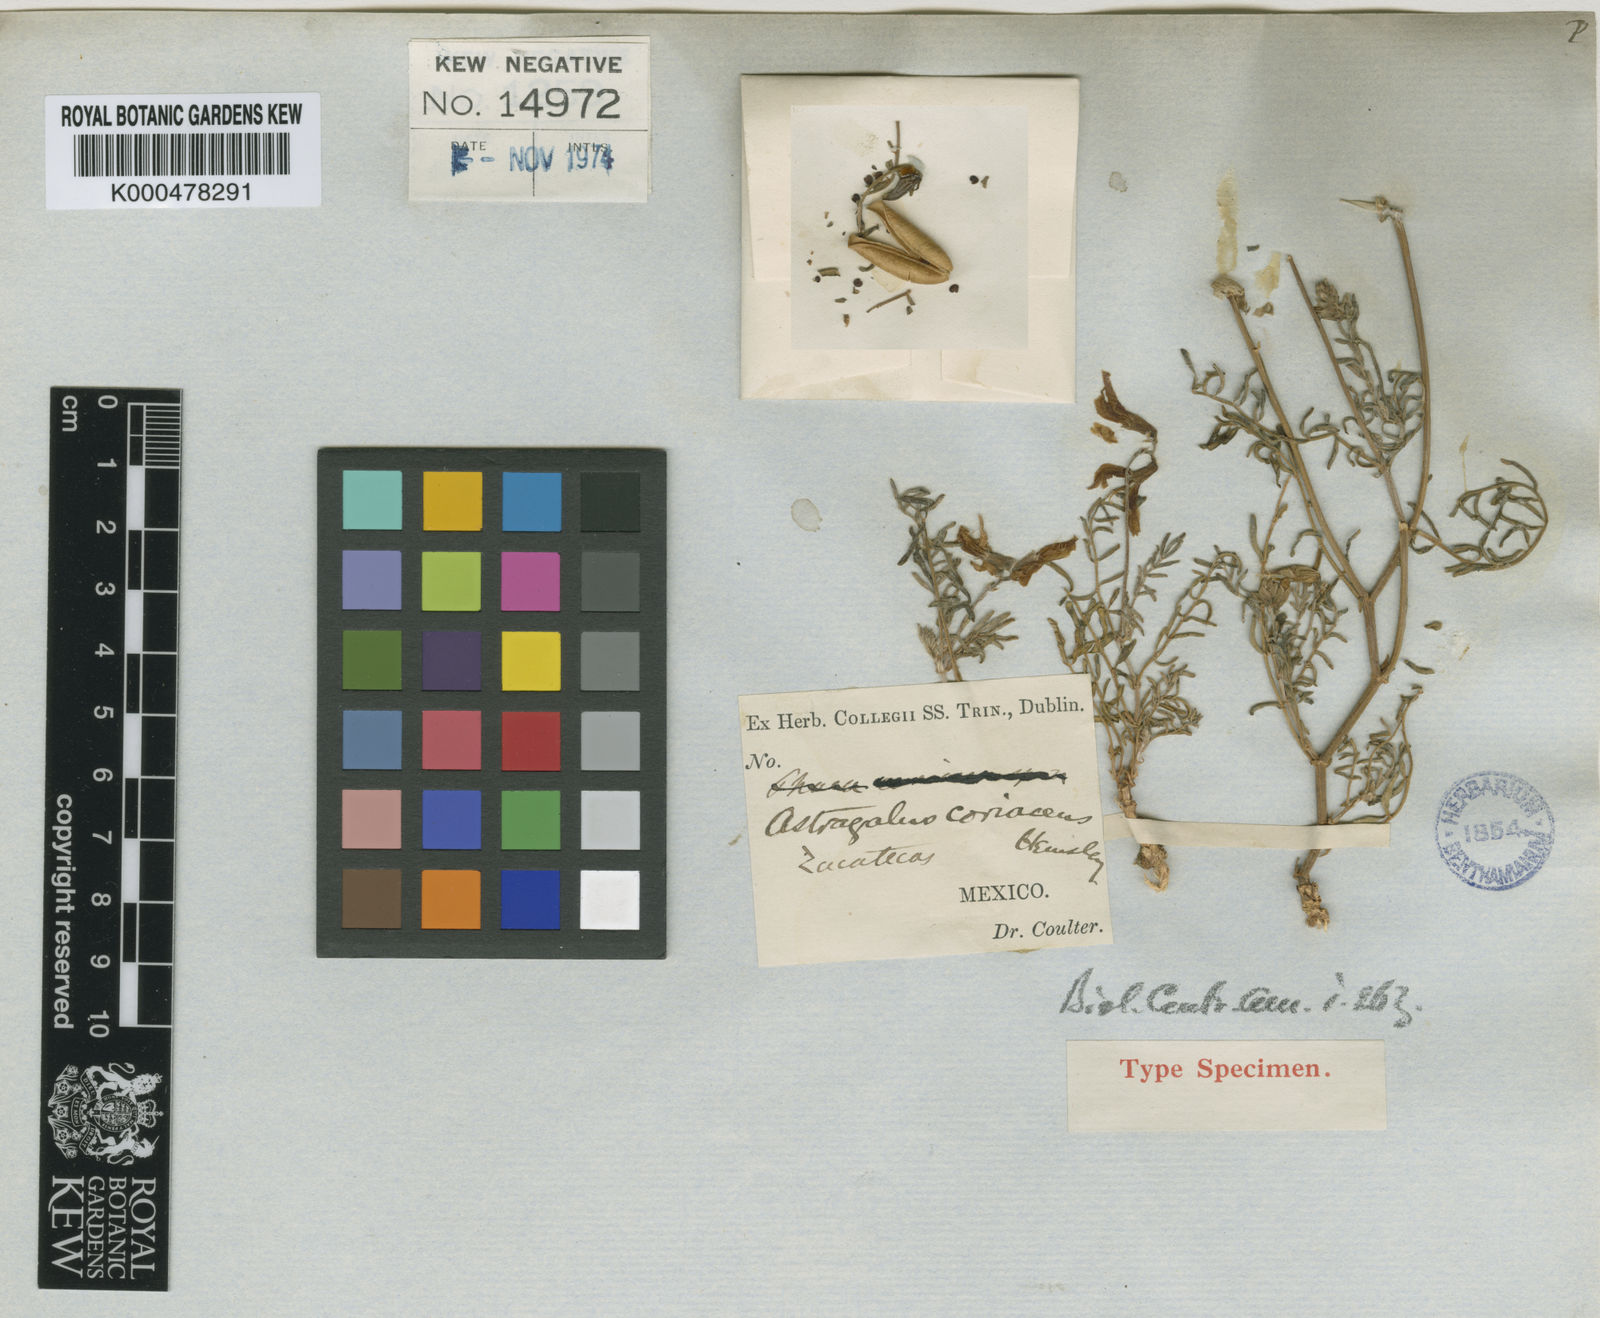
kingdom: Plantae
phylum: Tracheophyta
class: Magnoliopsida
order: Fabales
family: Fabaceae
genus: Astragalus
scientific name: Astragalus coriaceus
